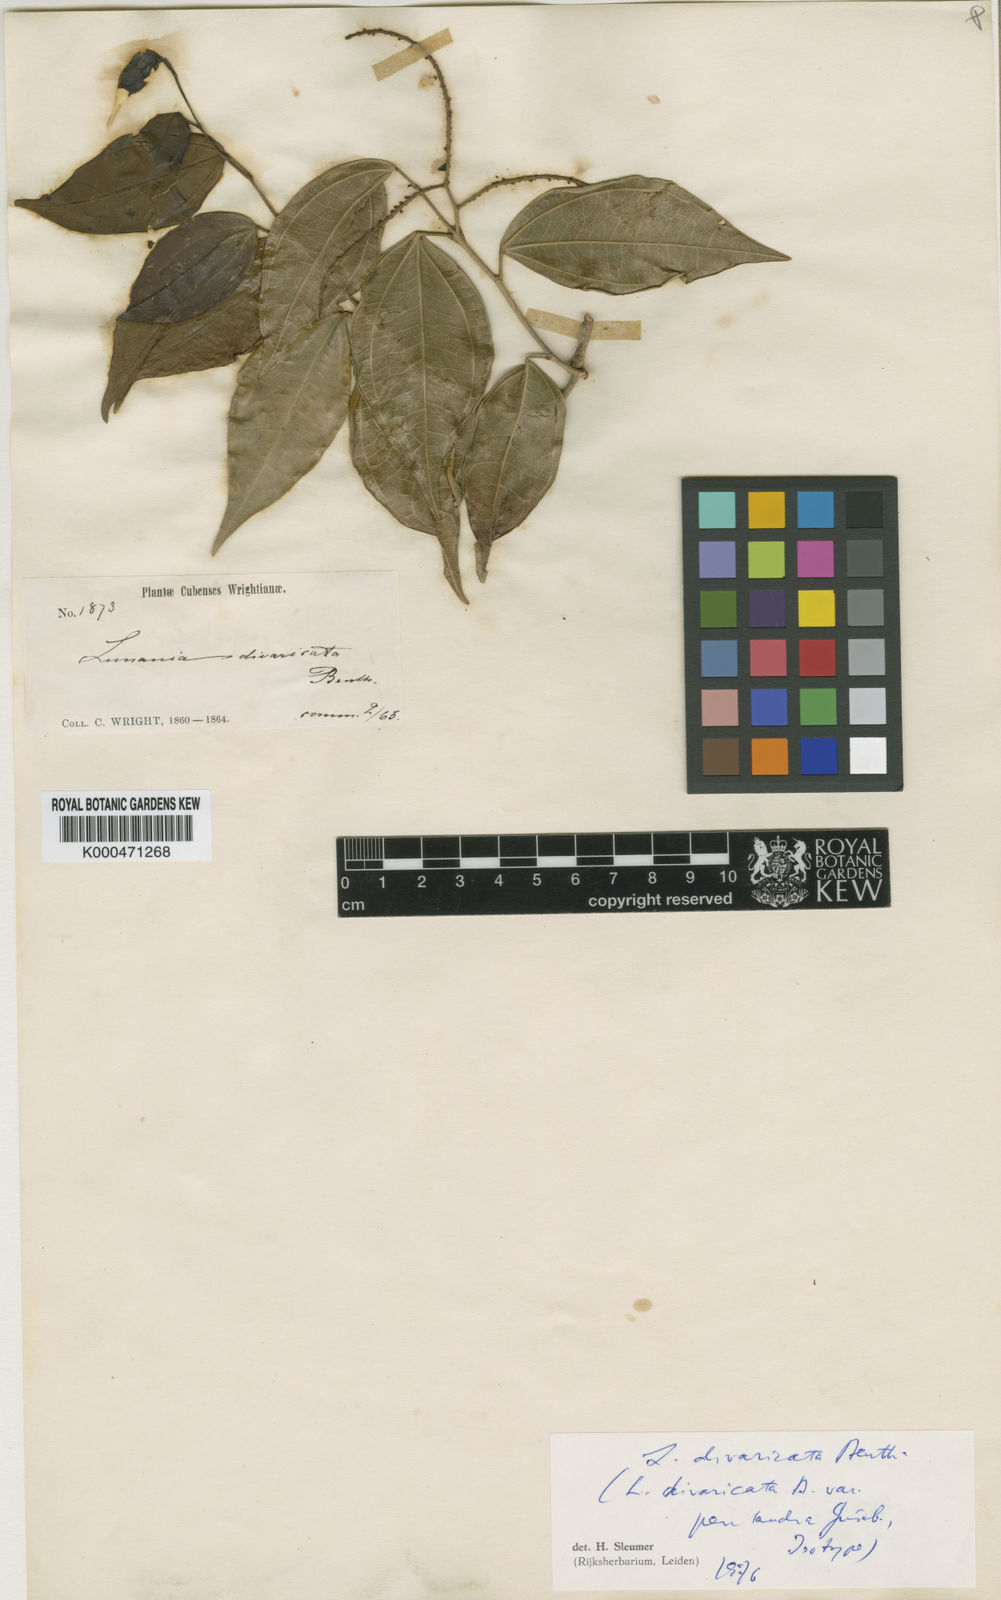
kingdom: Plantae
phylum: Tracheophyta
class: Magnoliopsida
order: Malpighiales
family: Salicaceae
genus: Lunania
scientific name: Lunania divaricata
